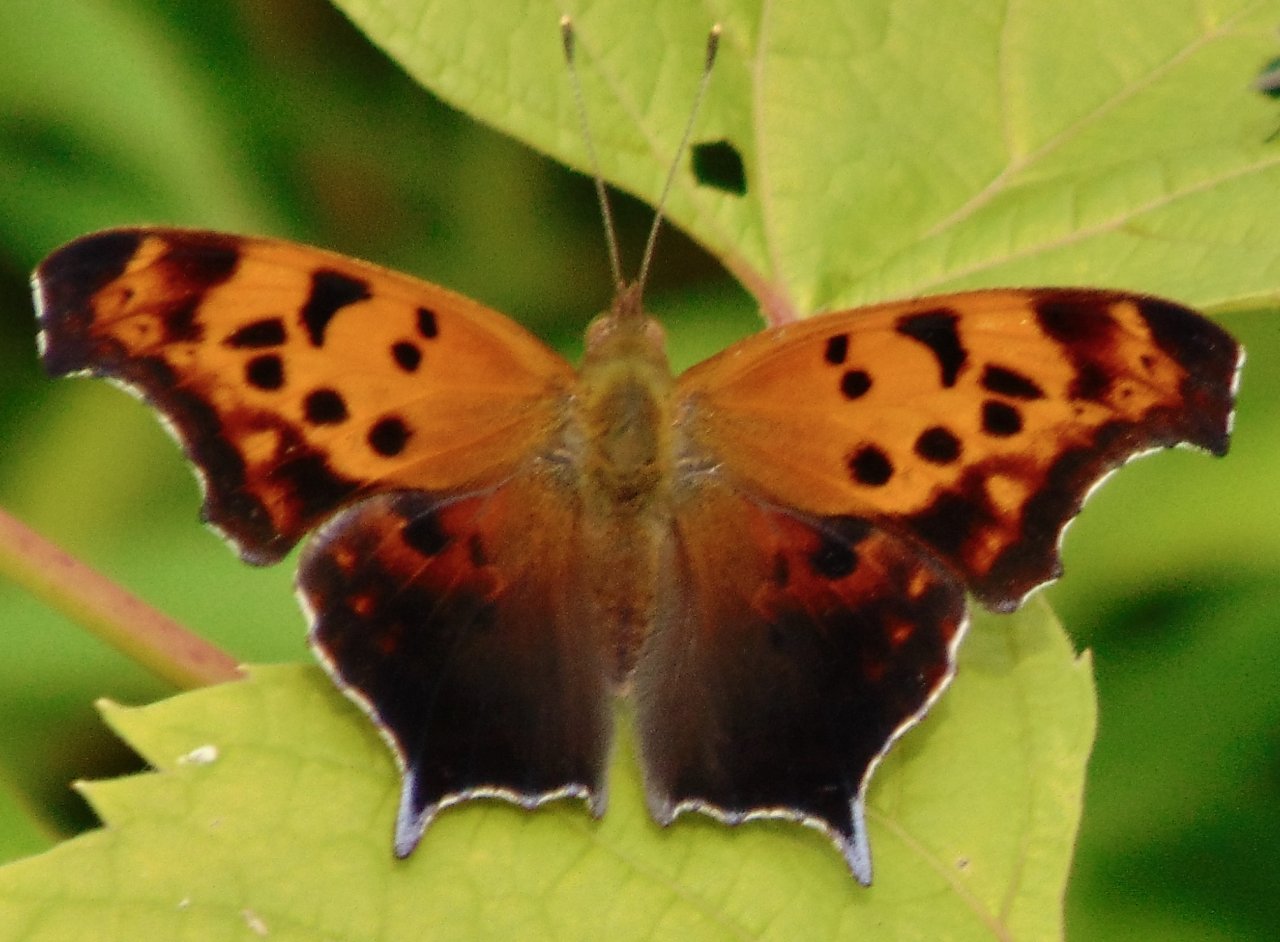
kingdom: Animalia
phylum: Arthropoda
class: Insecta
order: Lepidoptera
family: Nymphalidae
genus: Polygonia
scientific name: Polygonia interrogationis
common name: Question Mark
